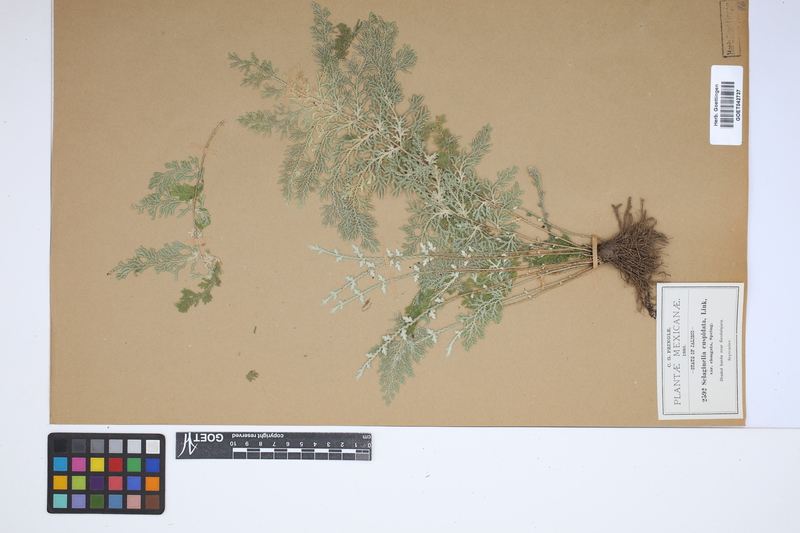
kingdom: Plantae
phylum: Tracheophyta
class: Lycopodiopsida
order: Selaginellales
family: Selaginellaceae
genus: Selaginella
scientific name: Selaginella pallescens
